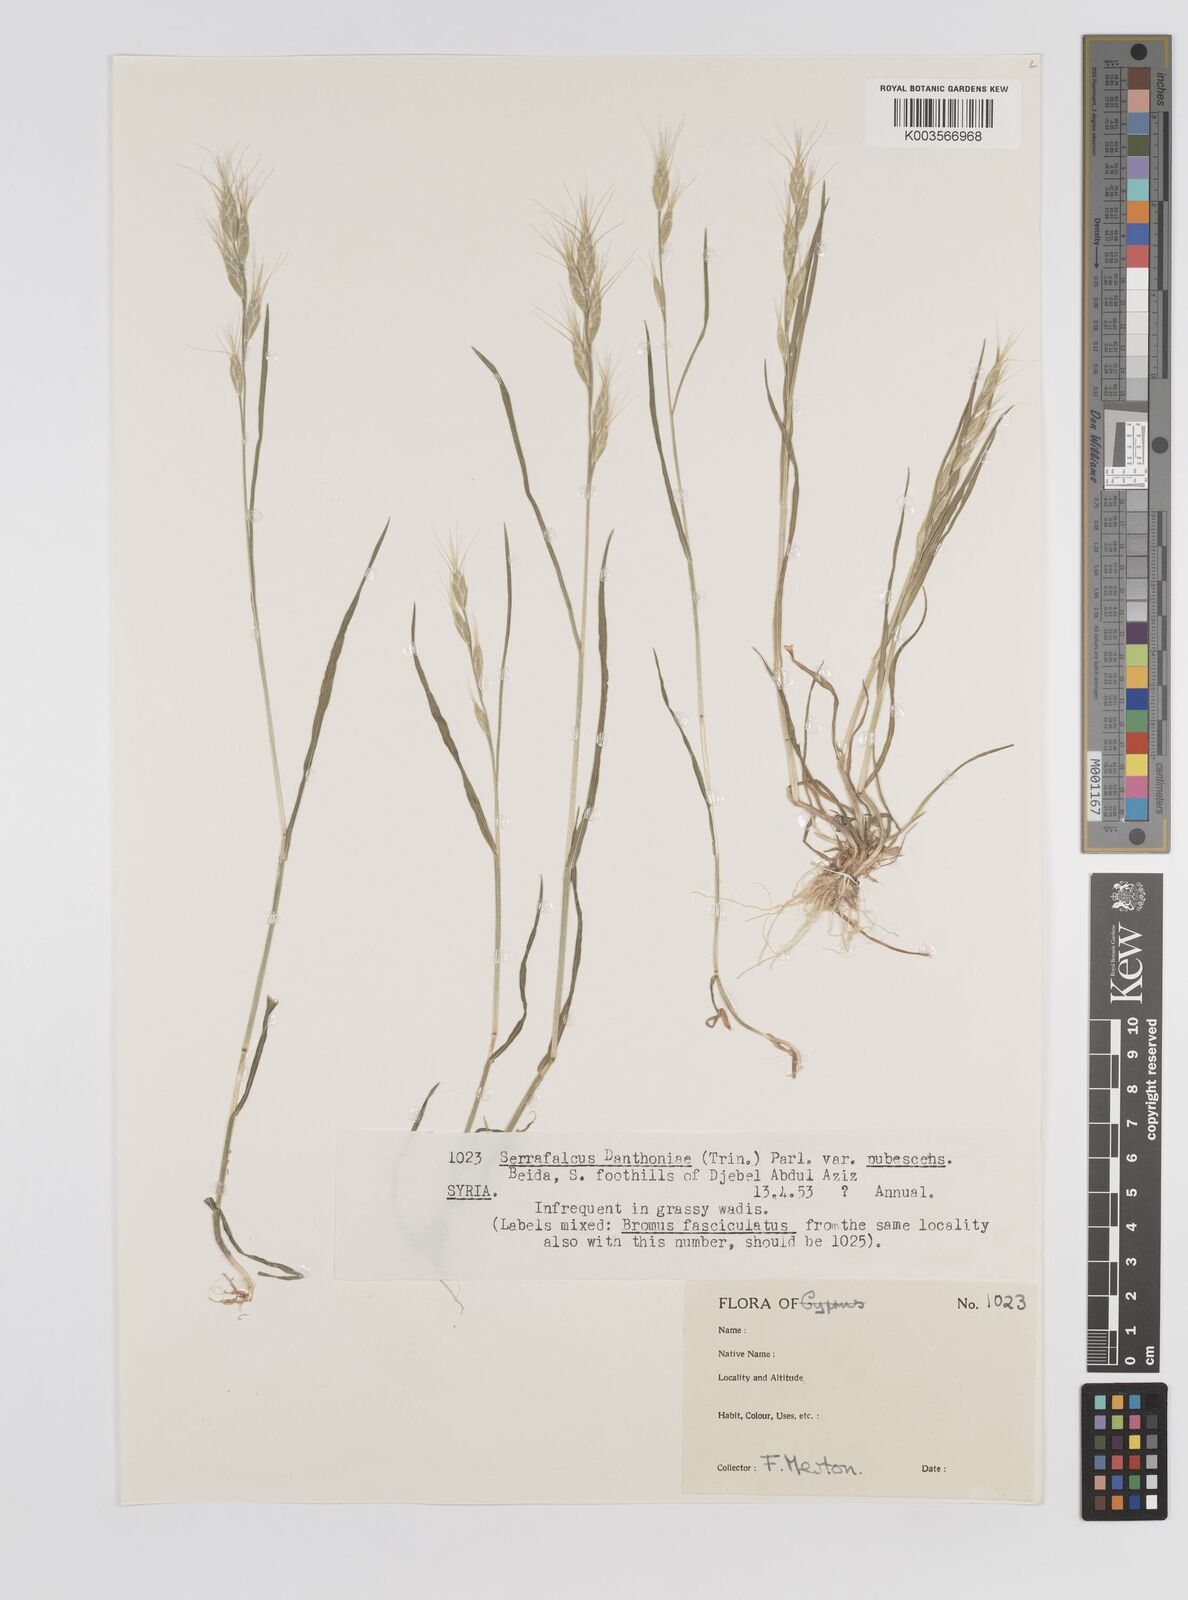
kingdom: Plantae
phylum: Tracheophyta
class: Liliopsida
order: Poales
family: Poaceae
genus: Bromus
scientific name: Bromus danthoniae
